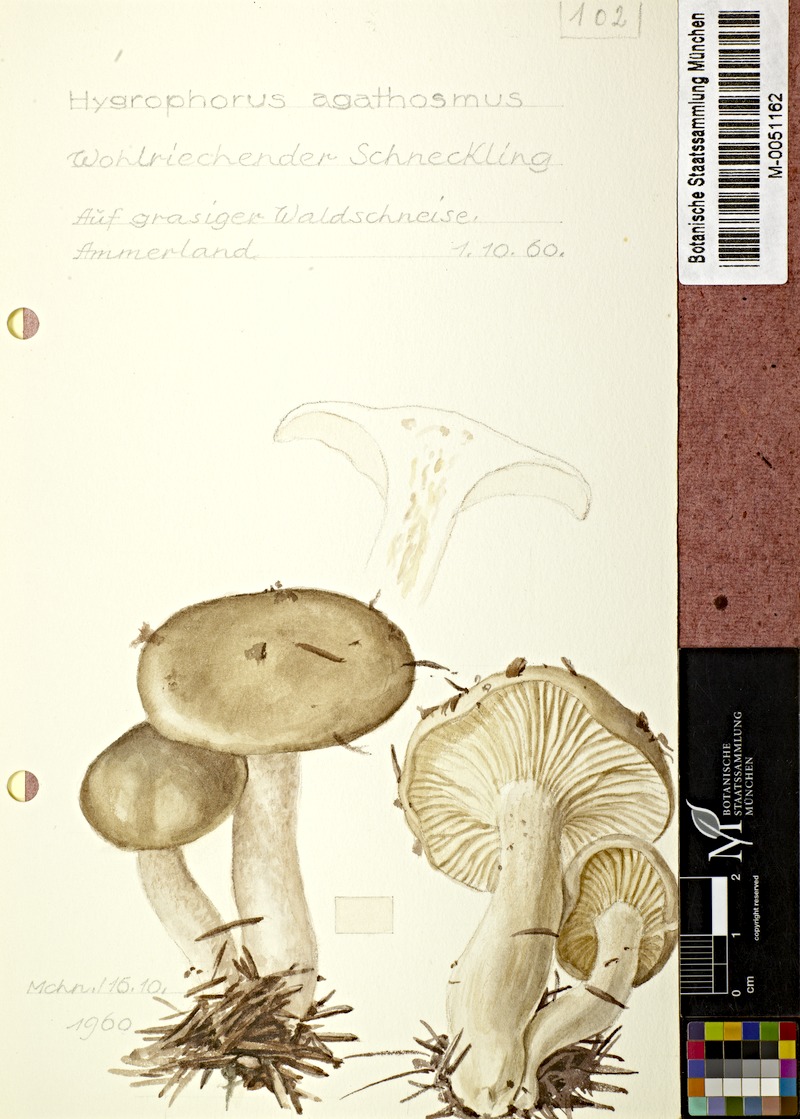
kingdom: Fungi
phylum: Basidiomycota
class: Agaricomycetes
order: Agaricales
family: Hygrophoraceae
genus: Hygrophorus
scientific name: Hygrophorus agathosmus
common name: Almond woodwax
